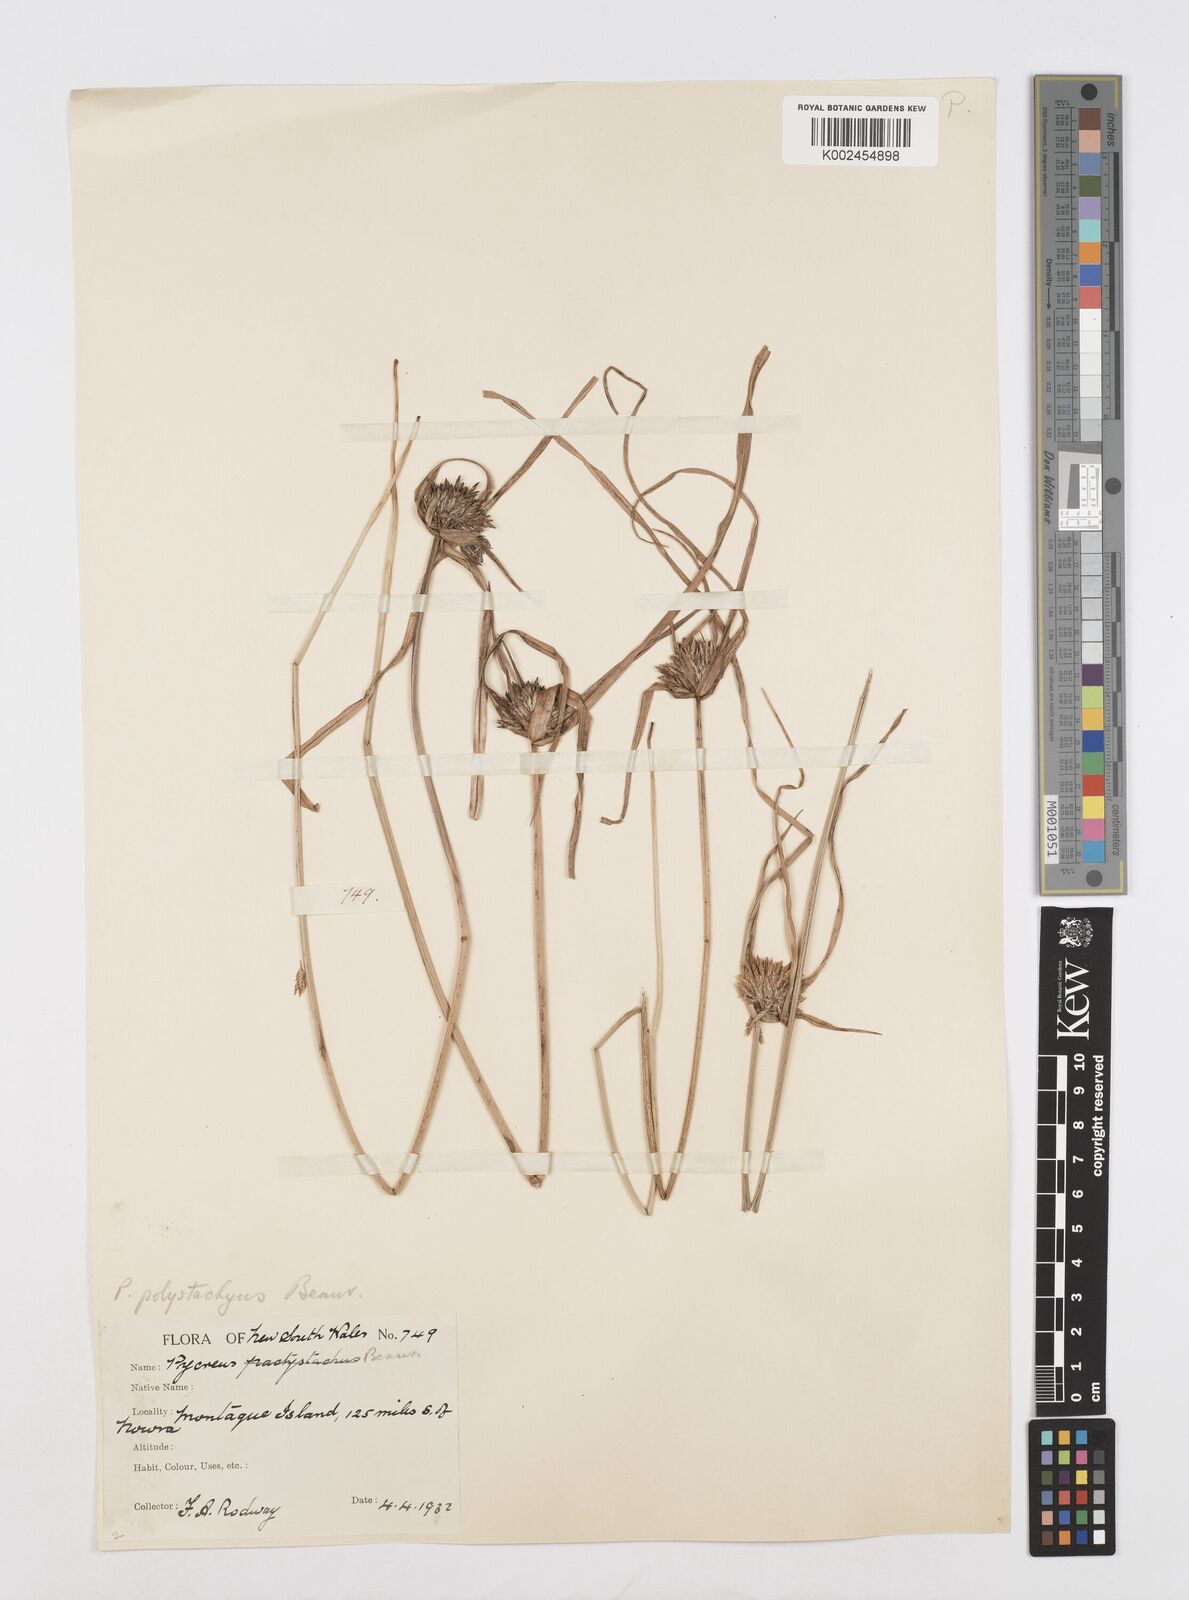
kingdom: Plantae
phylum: Tracheophyta
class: Liliopsida
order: Poales
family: Cyperaceae
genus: Cyperus
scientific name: Cyperus polystachyos
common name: Bunchy flat sedge
